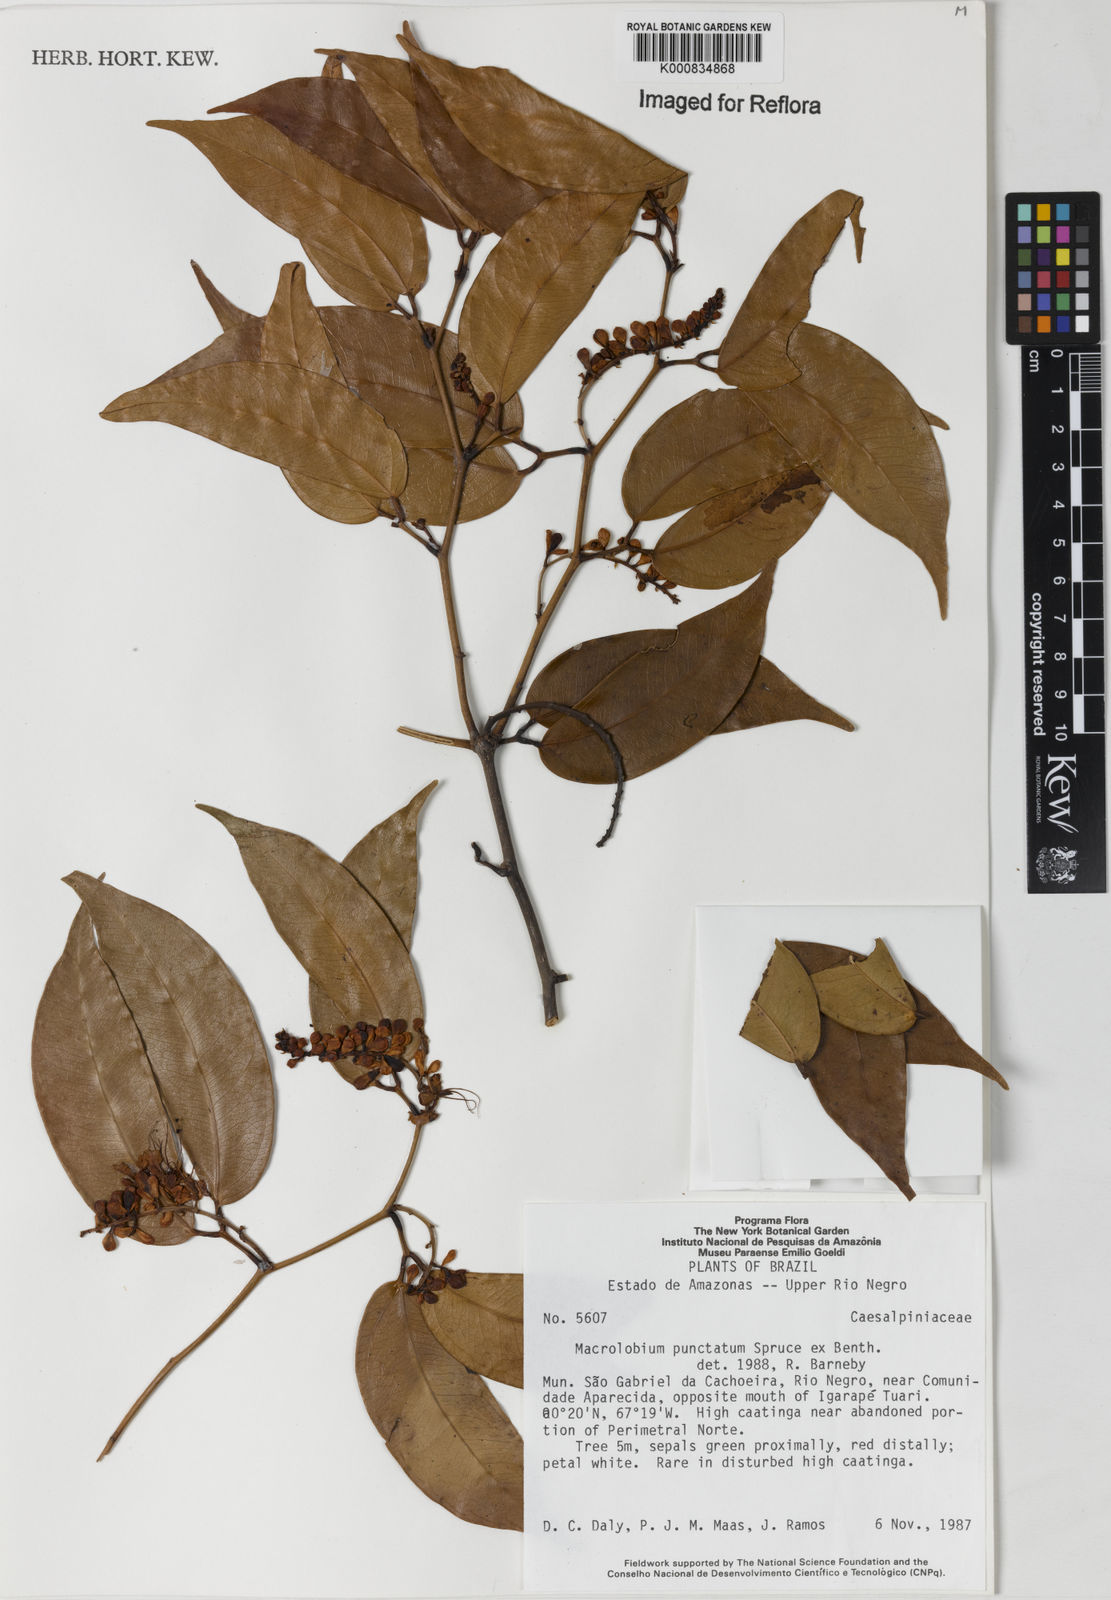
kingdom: Plantae
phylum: Tracheophyta
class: Magnoliopsida
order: Fabales
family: Fabaceae
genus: Macrolobium
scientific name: Macrolobium punctatum
